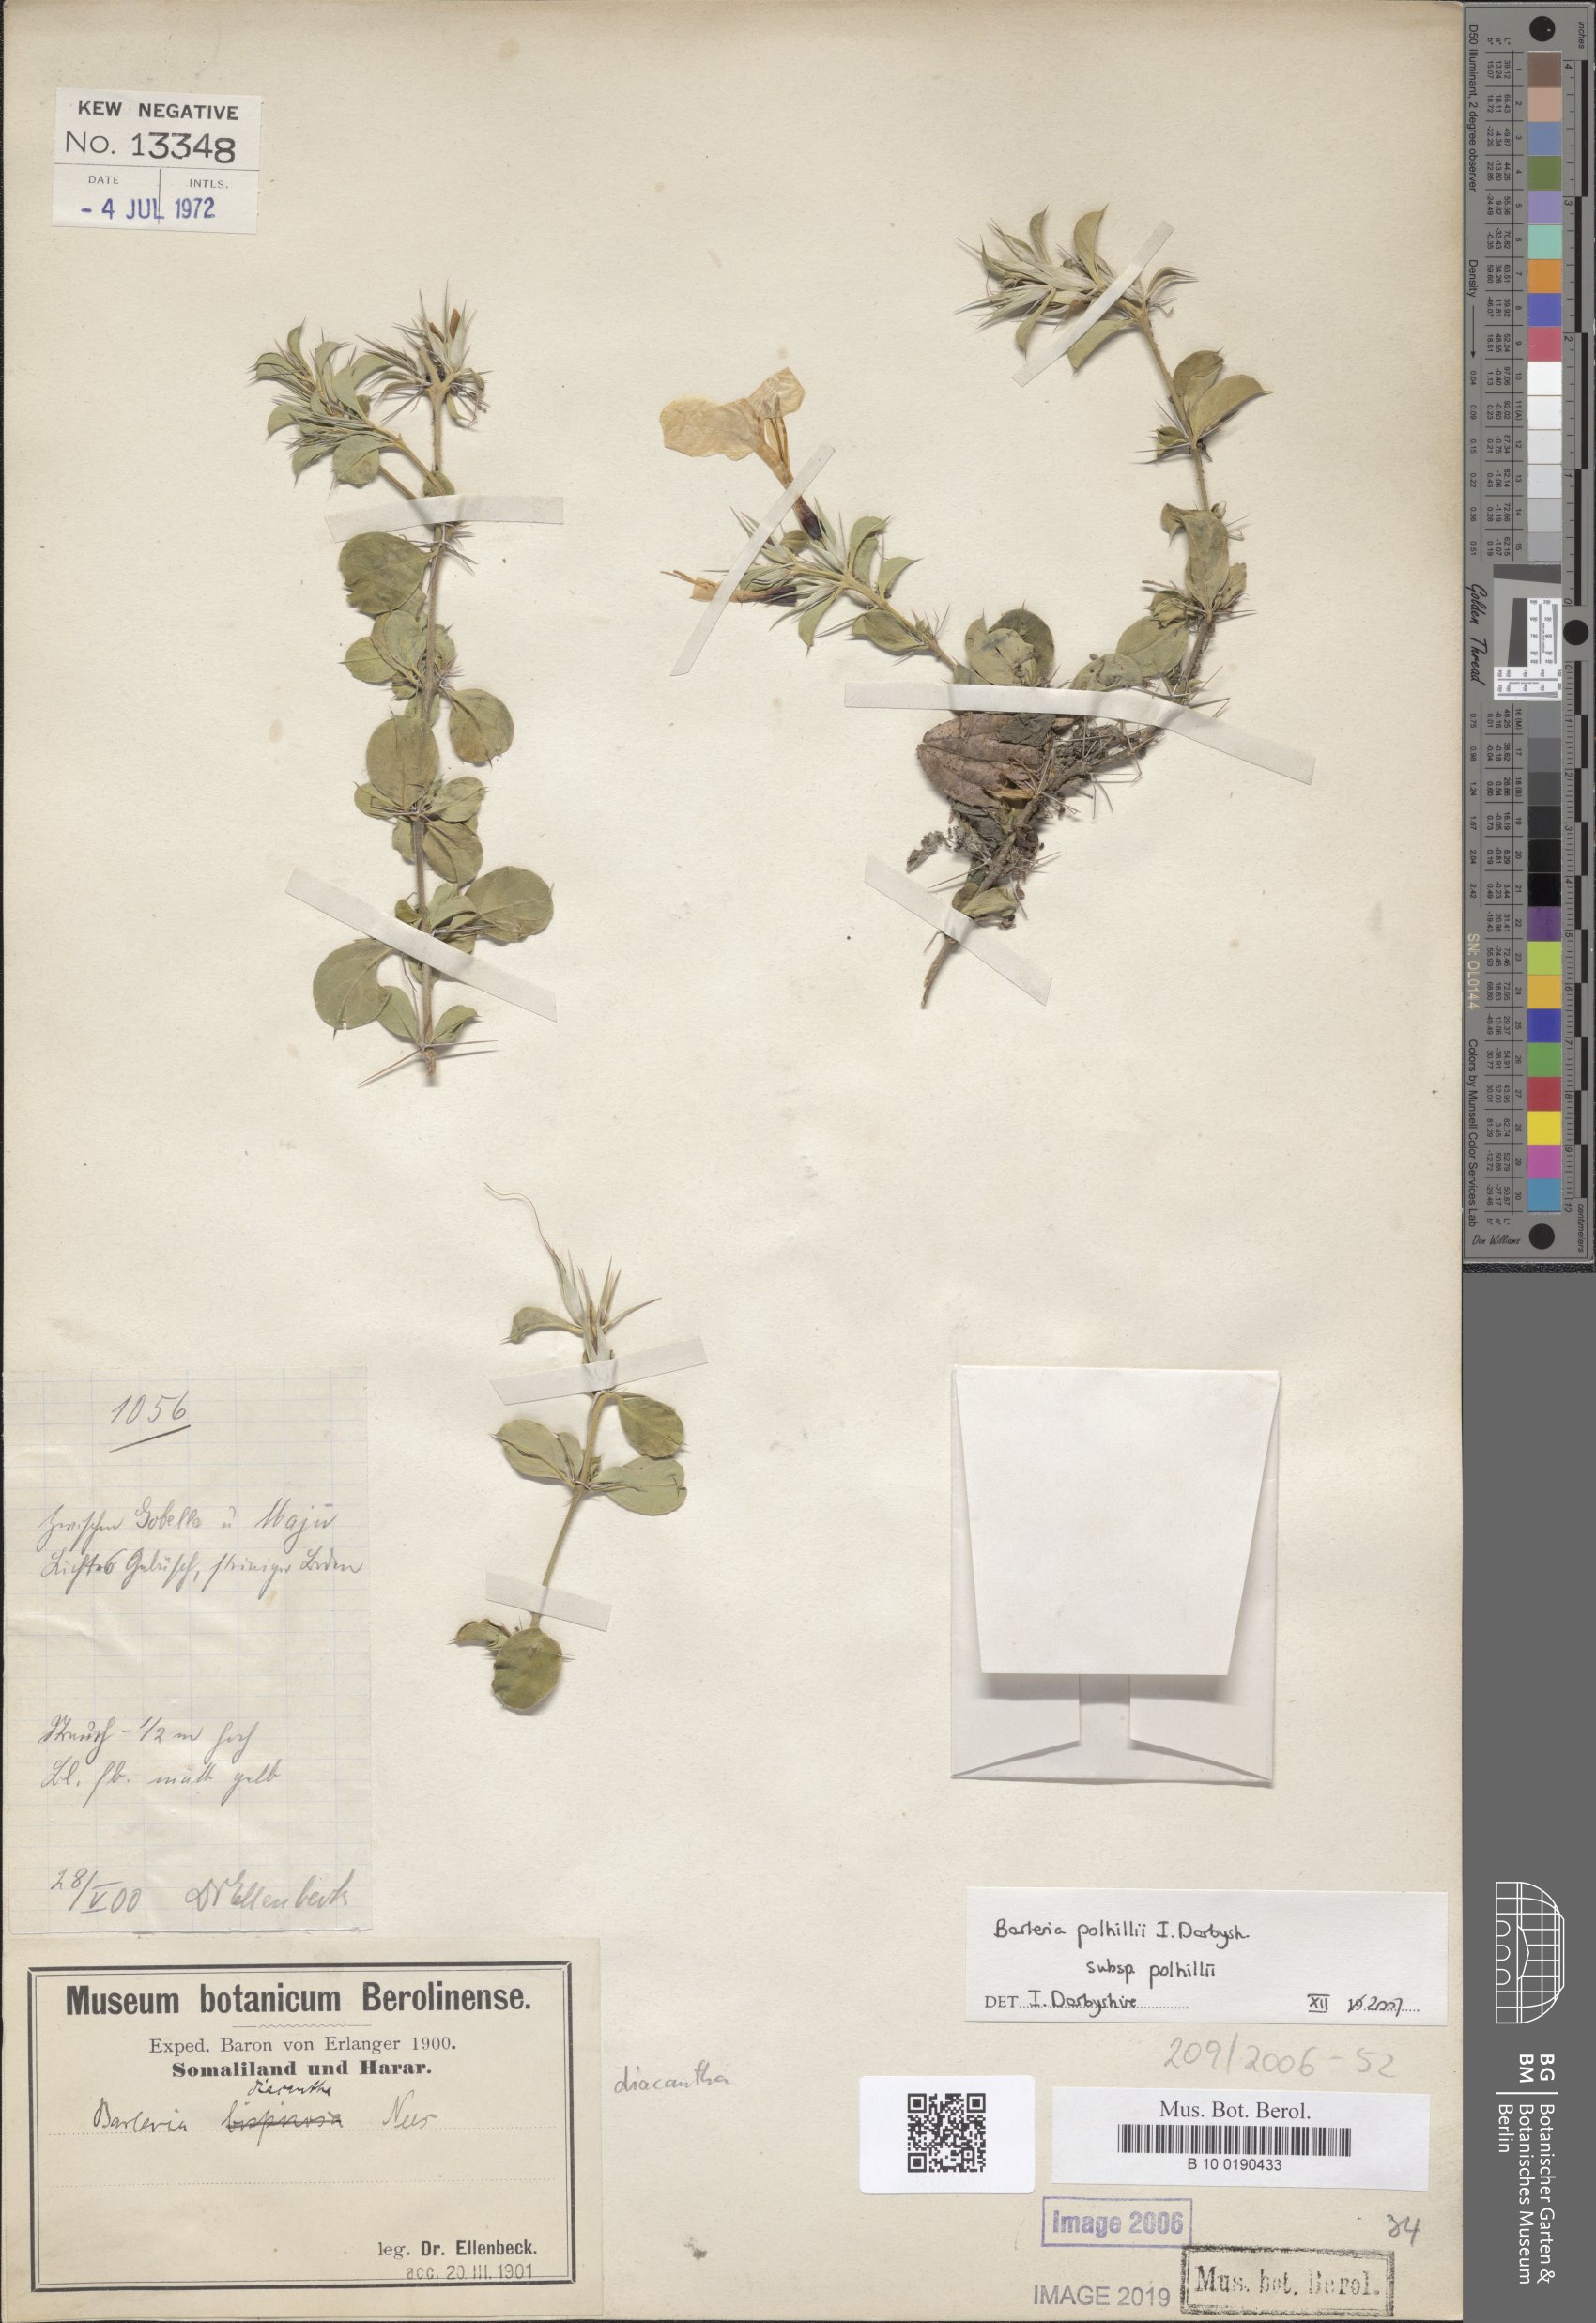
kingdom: Plantae
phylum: Tracheophyta
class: Magnoliopsida
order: Lamiales
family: Acanthaceae
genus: Barleria
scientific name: Barleria polhillii
